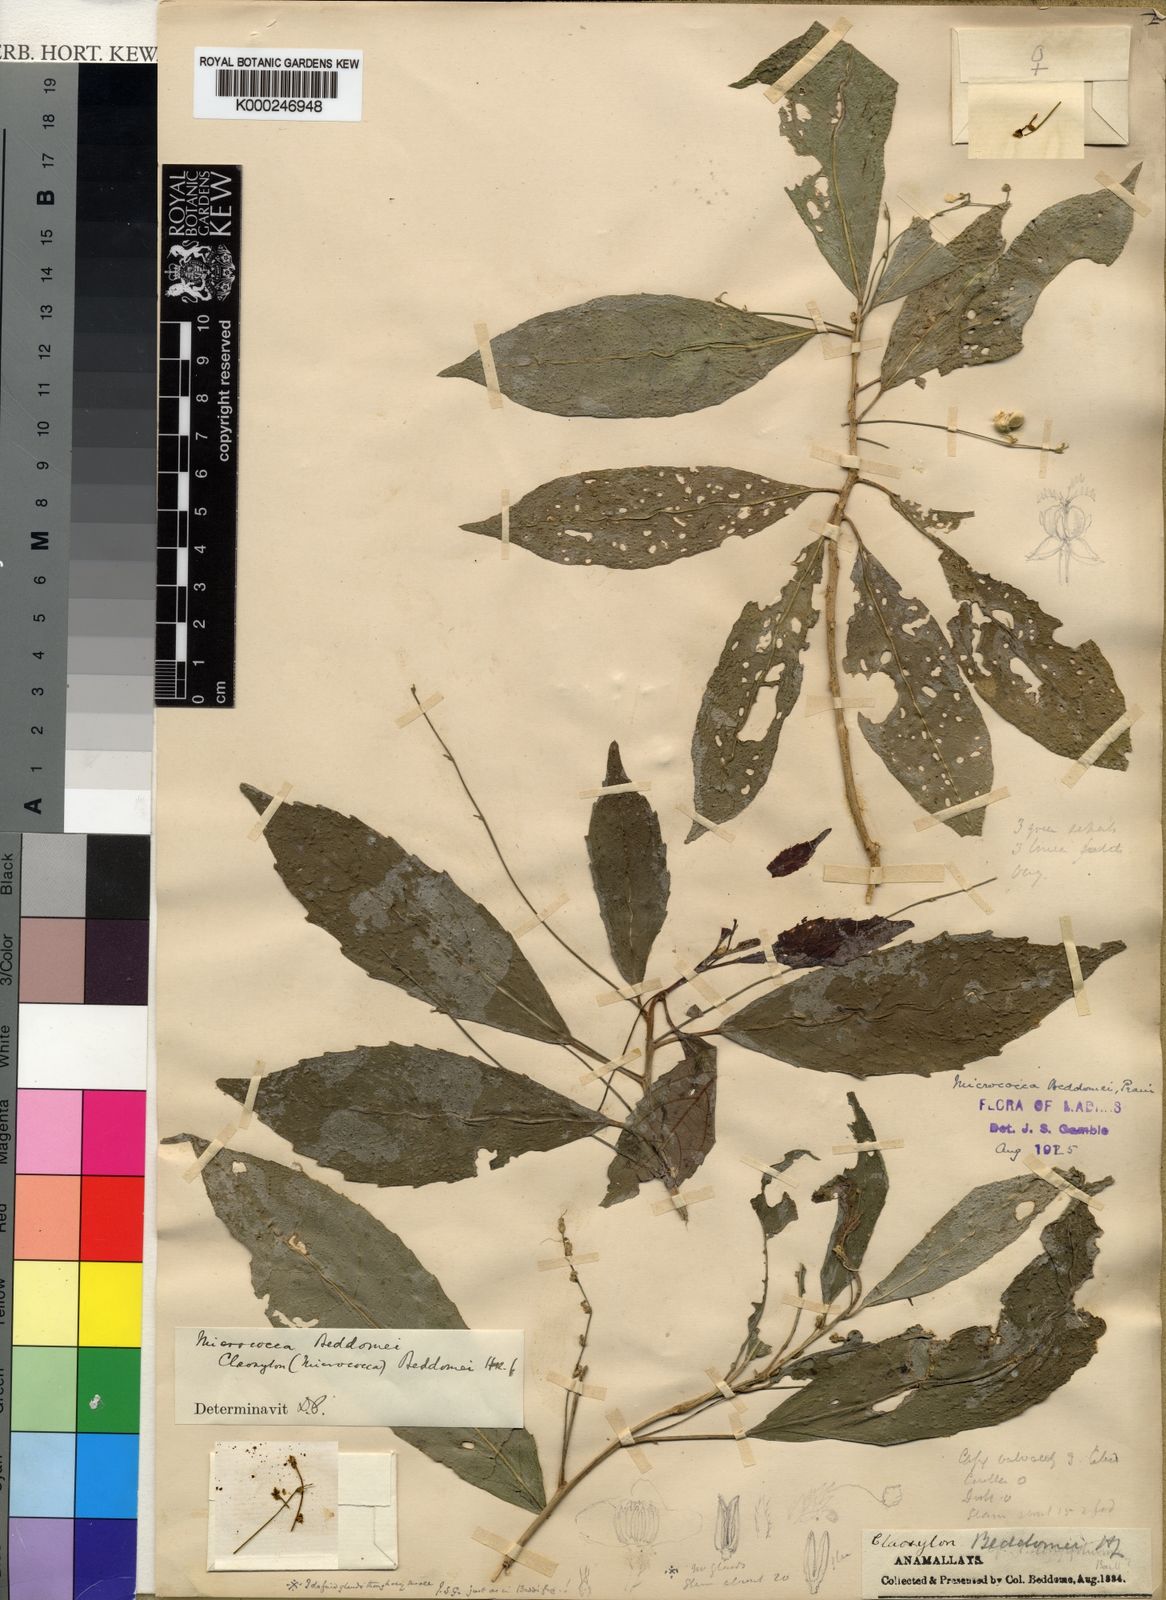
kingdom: Plantae
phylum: Tracheophyta
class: Magnoliopsida
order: Malpighiales
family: Euphorbiaceae
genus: Micrococca
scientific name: Micrococca beddomei
